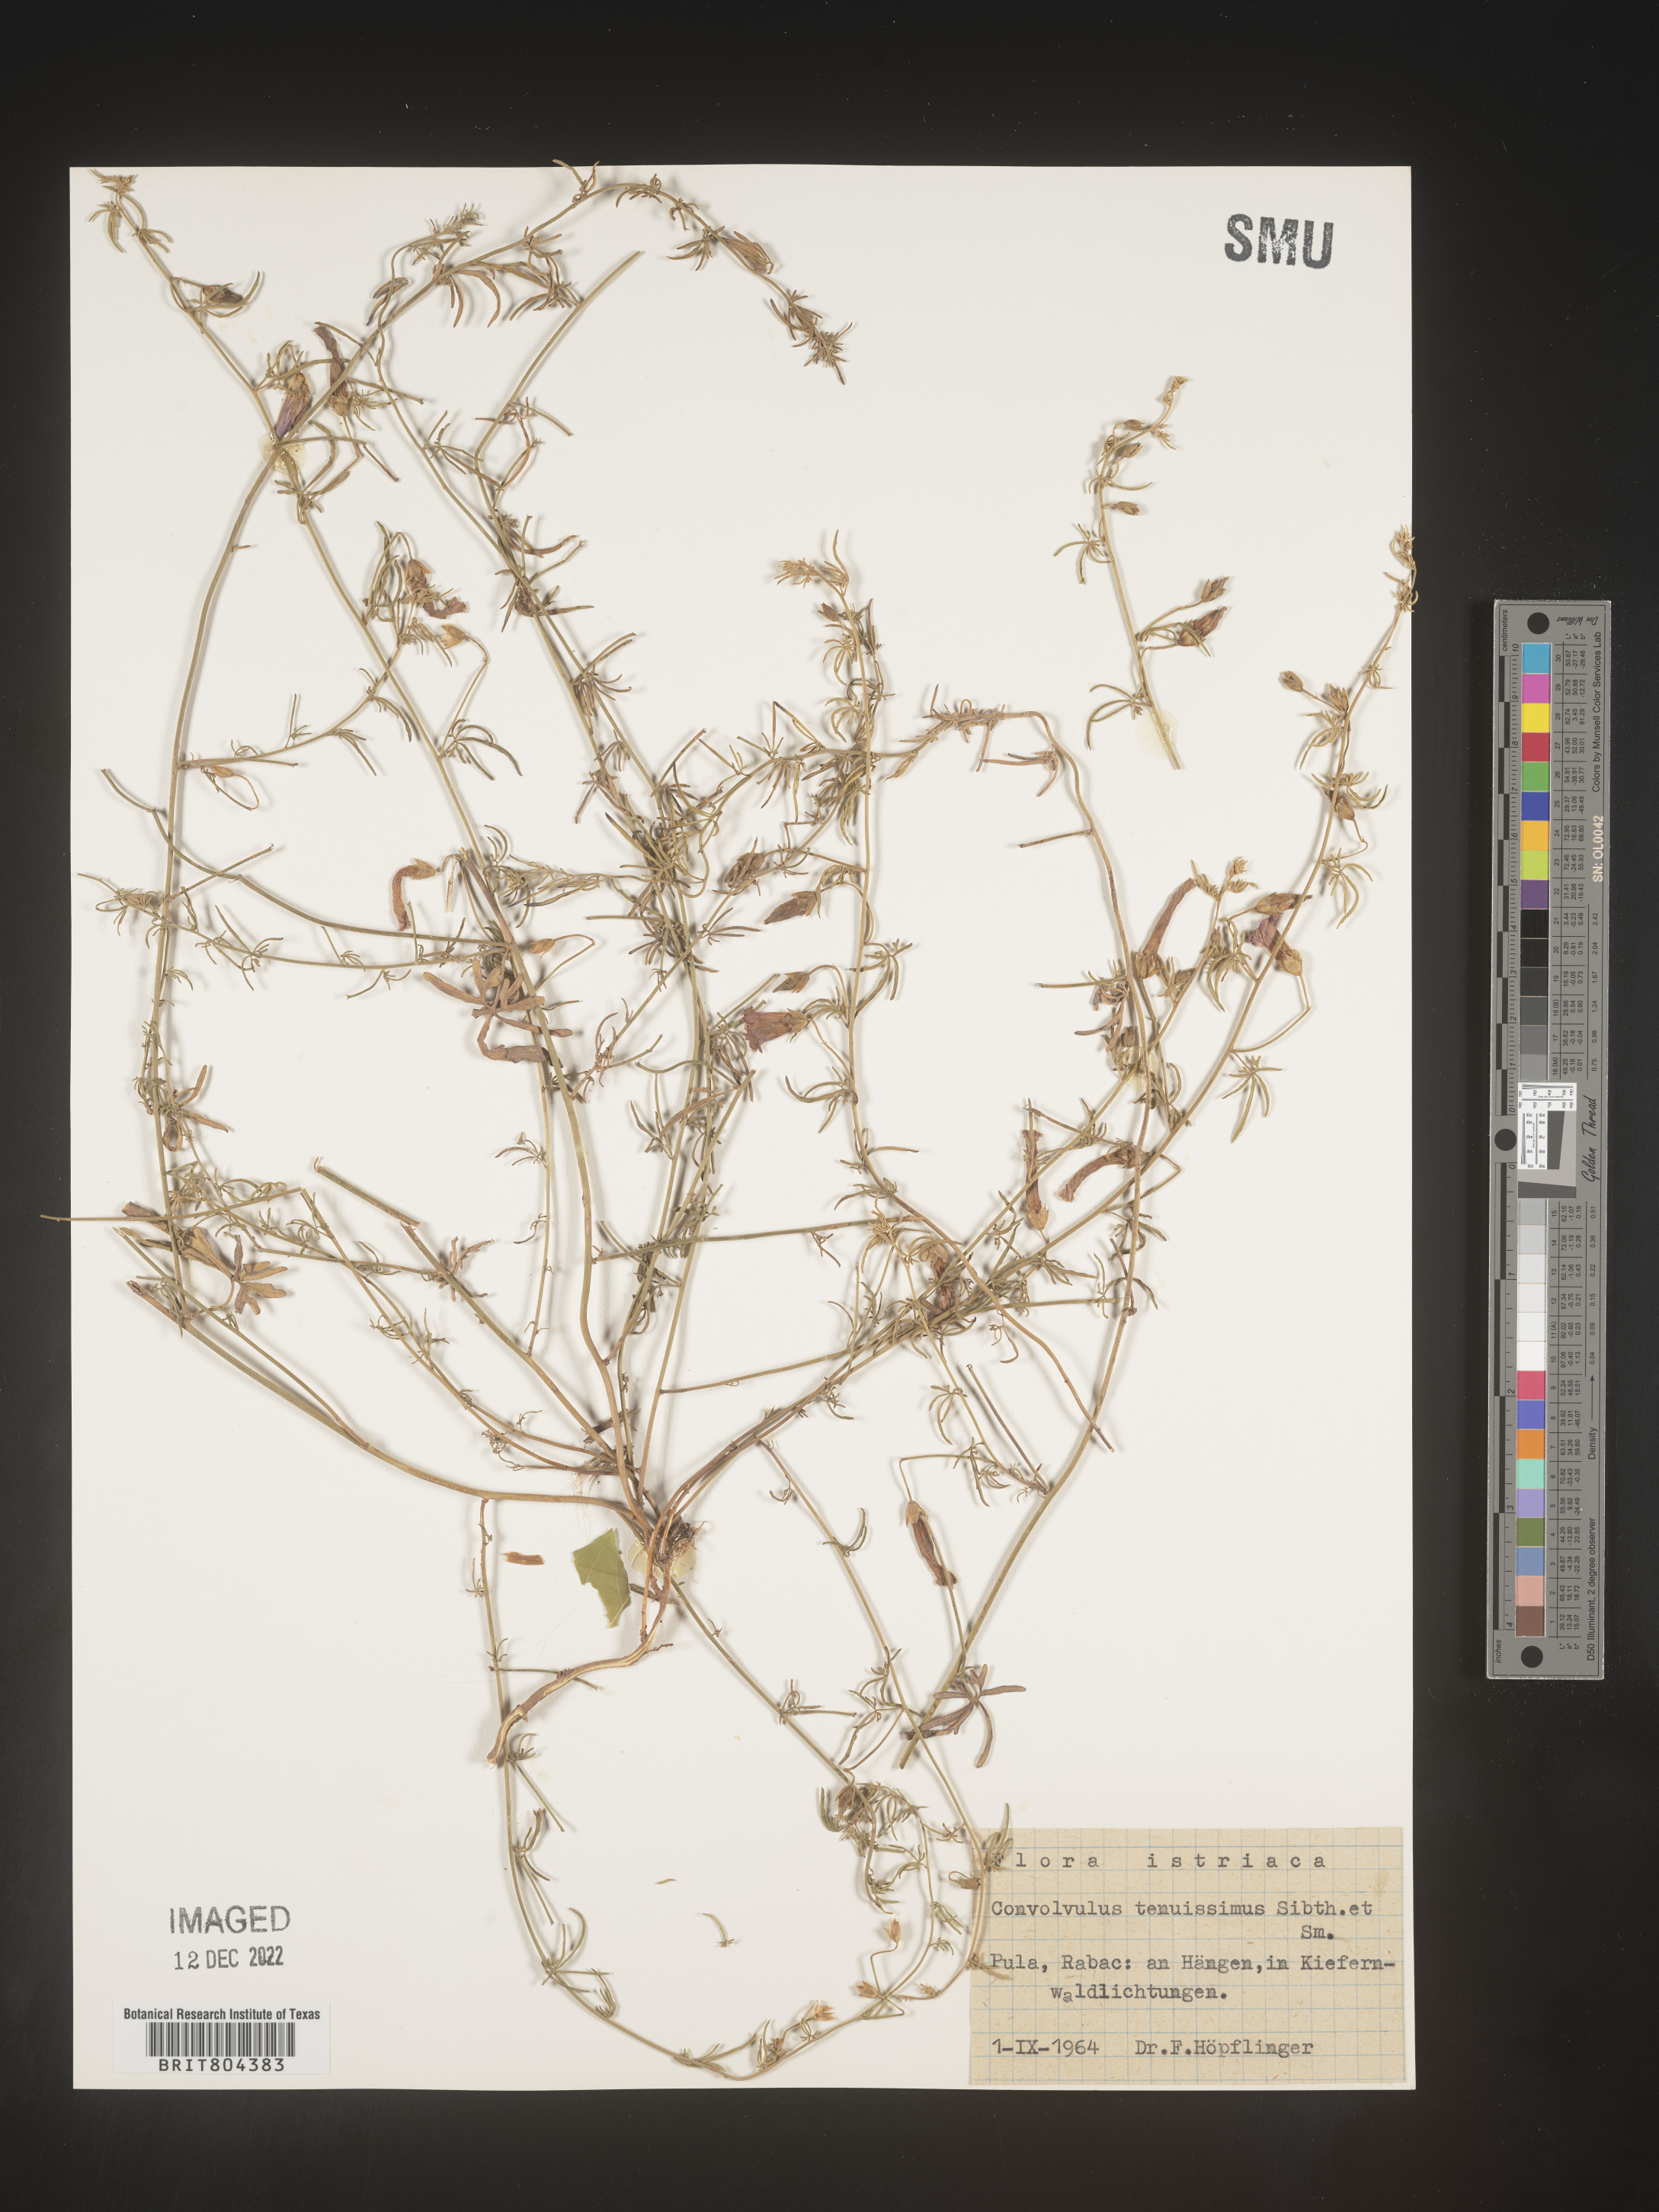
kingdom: Plantae
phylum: Tracheophyta
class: Magnoliopsida
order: Solanales
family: Convolvulaceae
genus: Convolvulus
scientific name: Convolvulus
